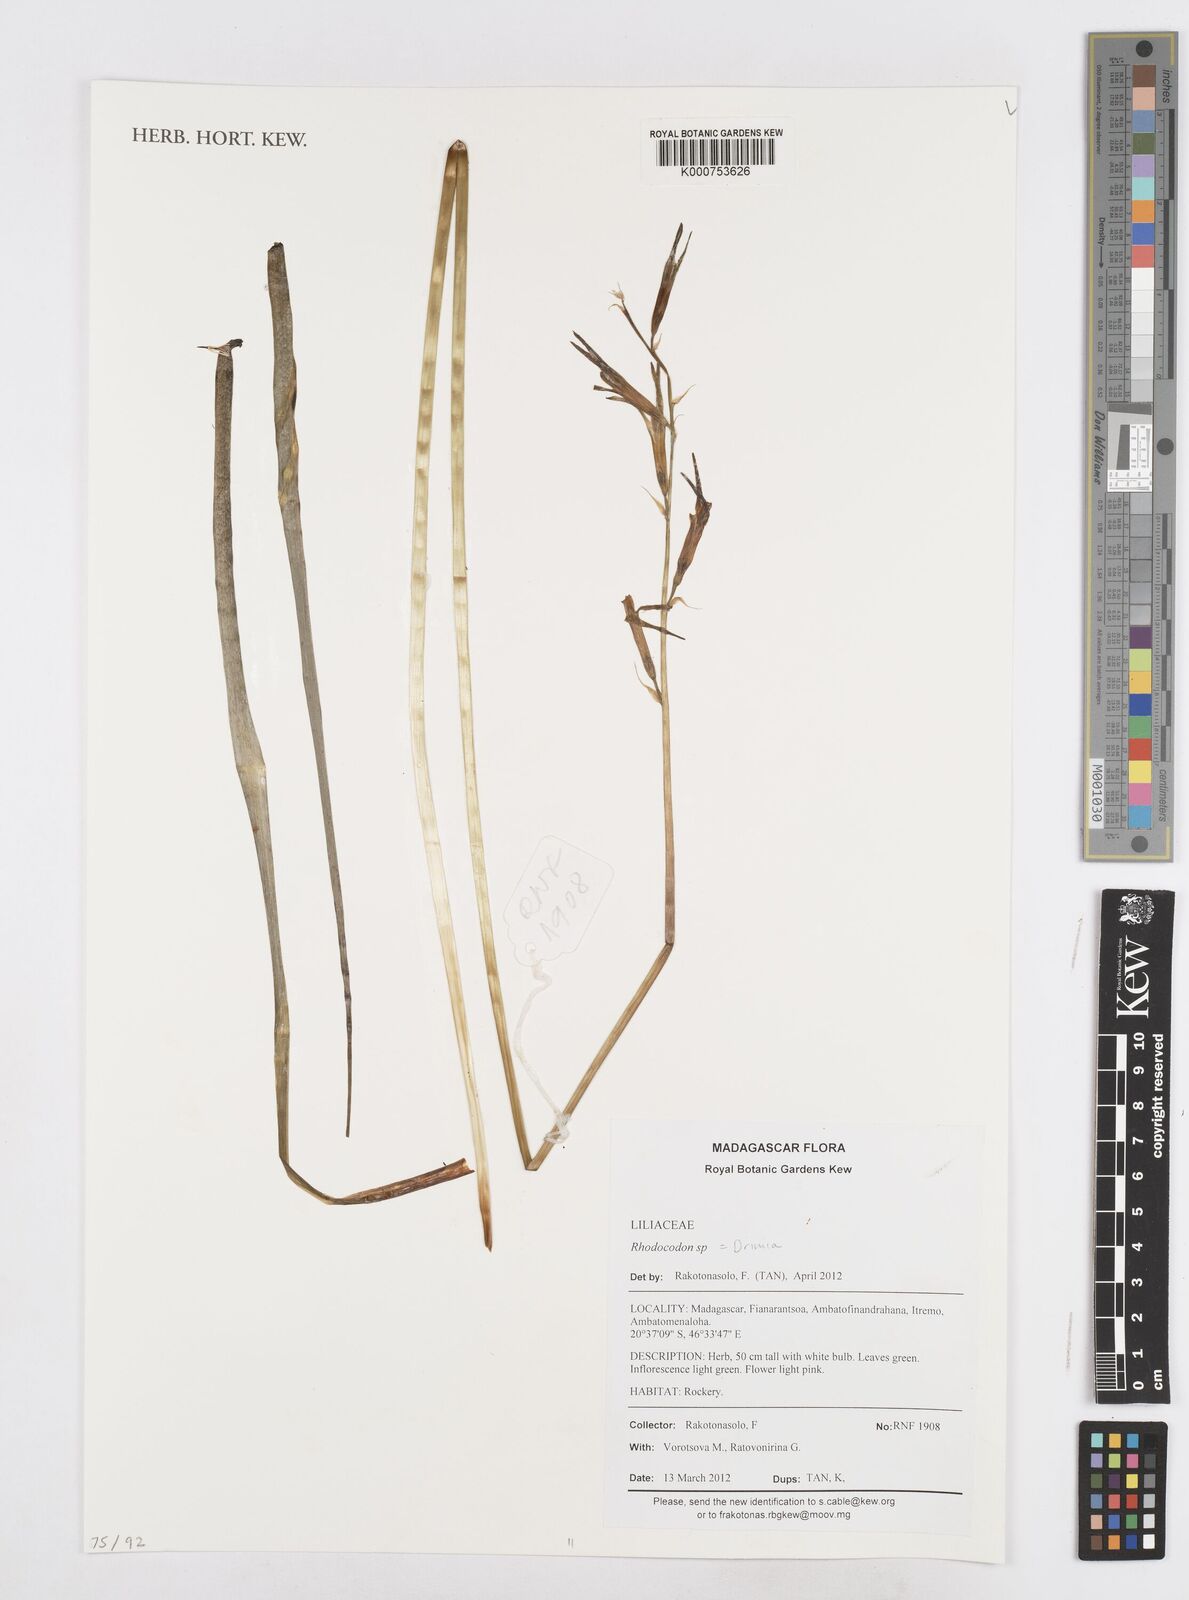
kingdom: Plantae
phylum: Tracheophyta
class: Liliopsida
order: Asparagales
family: Asparagaceae
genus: Drimia
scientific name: Drimia
